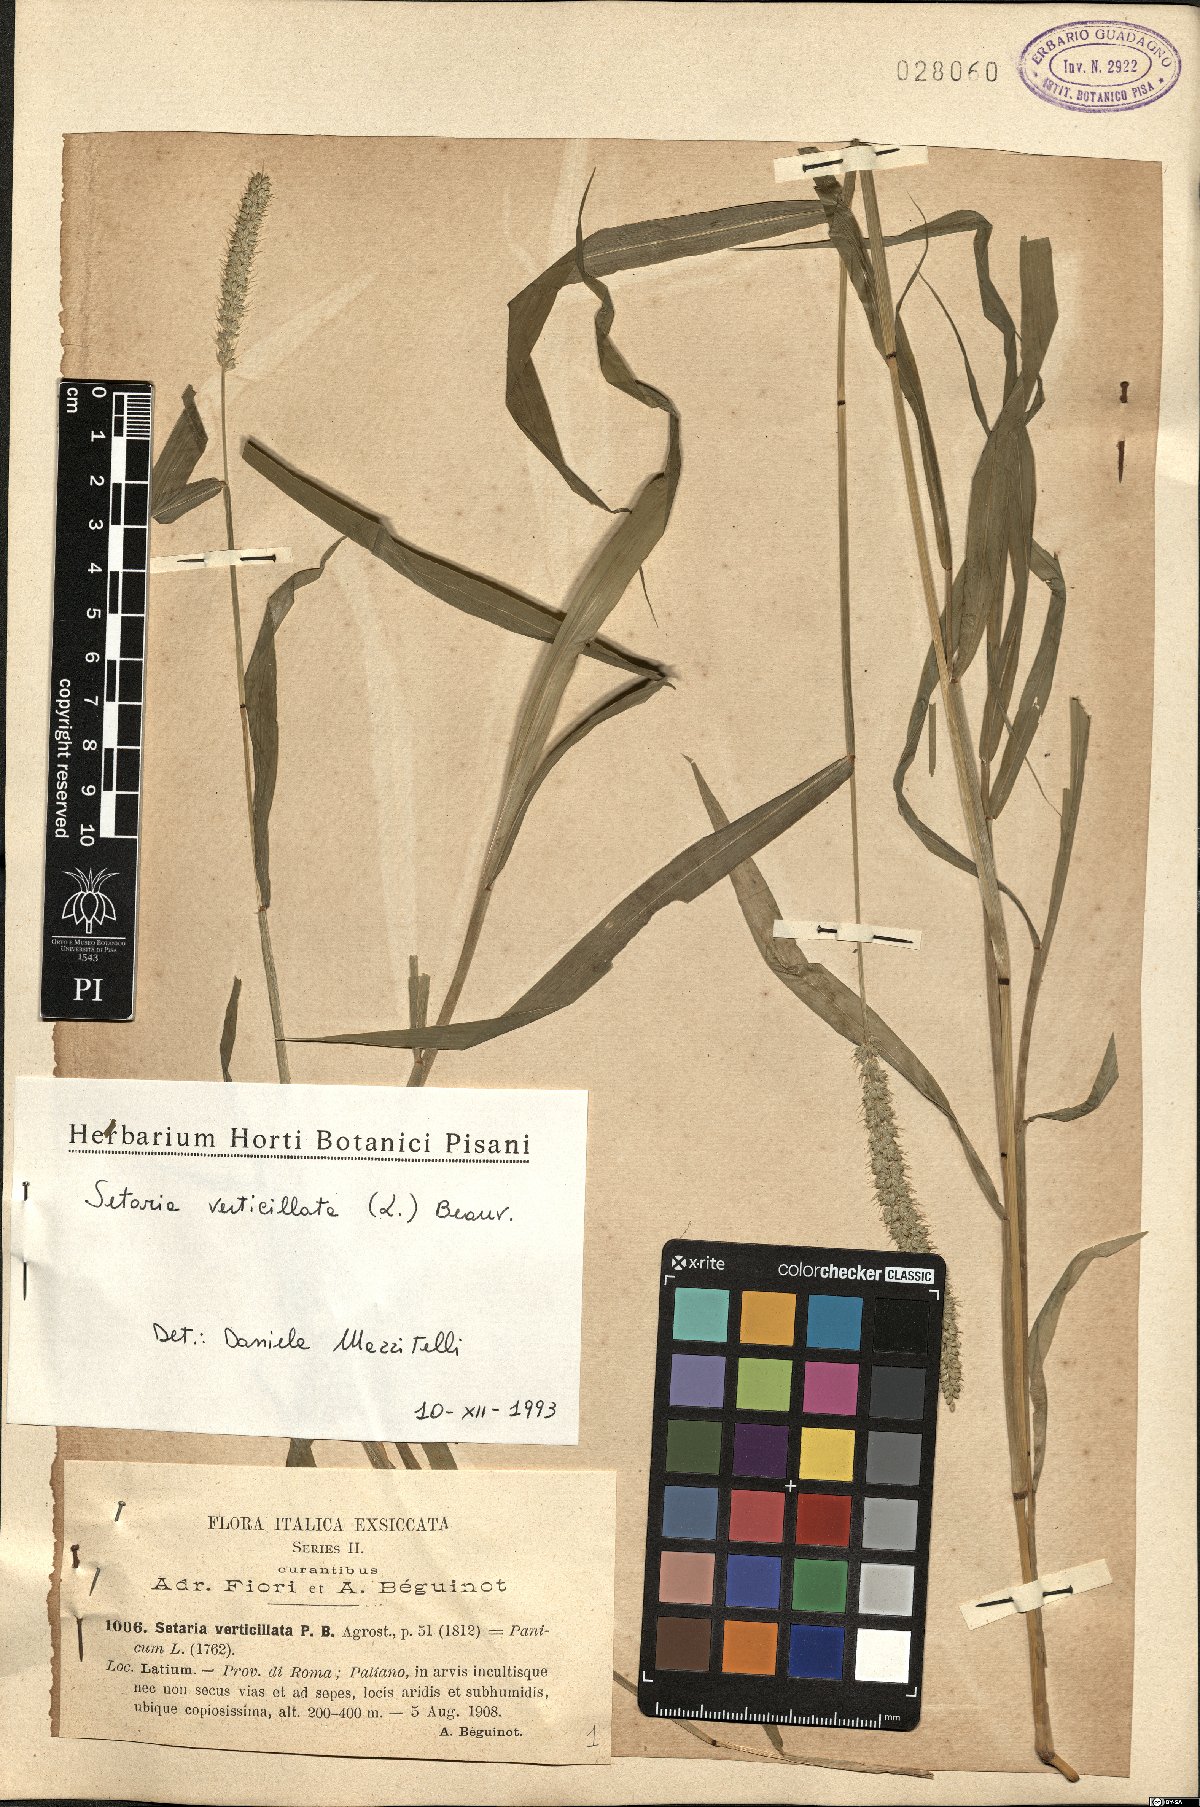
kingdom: Plantae
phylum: Tracheophyta
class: Liliopsida
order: Poales
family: Poaceae
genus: Setaria
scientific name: Setaria verticillata
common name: Hooked bristlegrass
